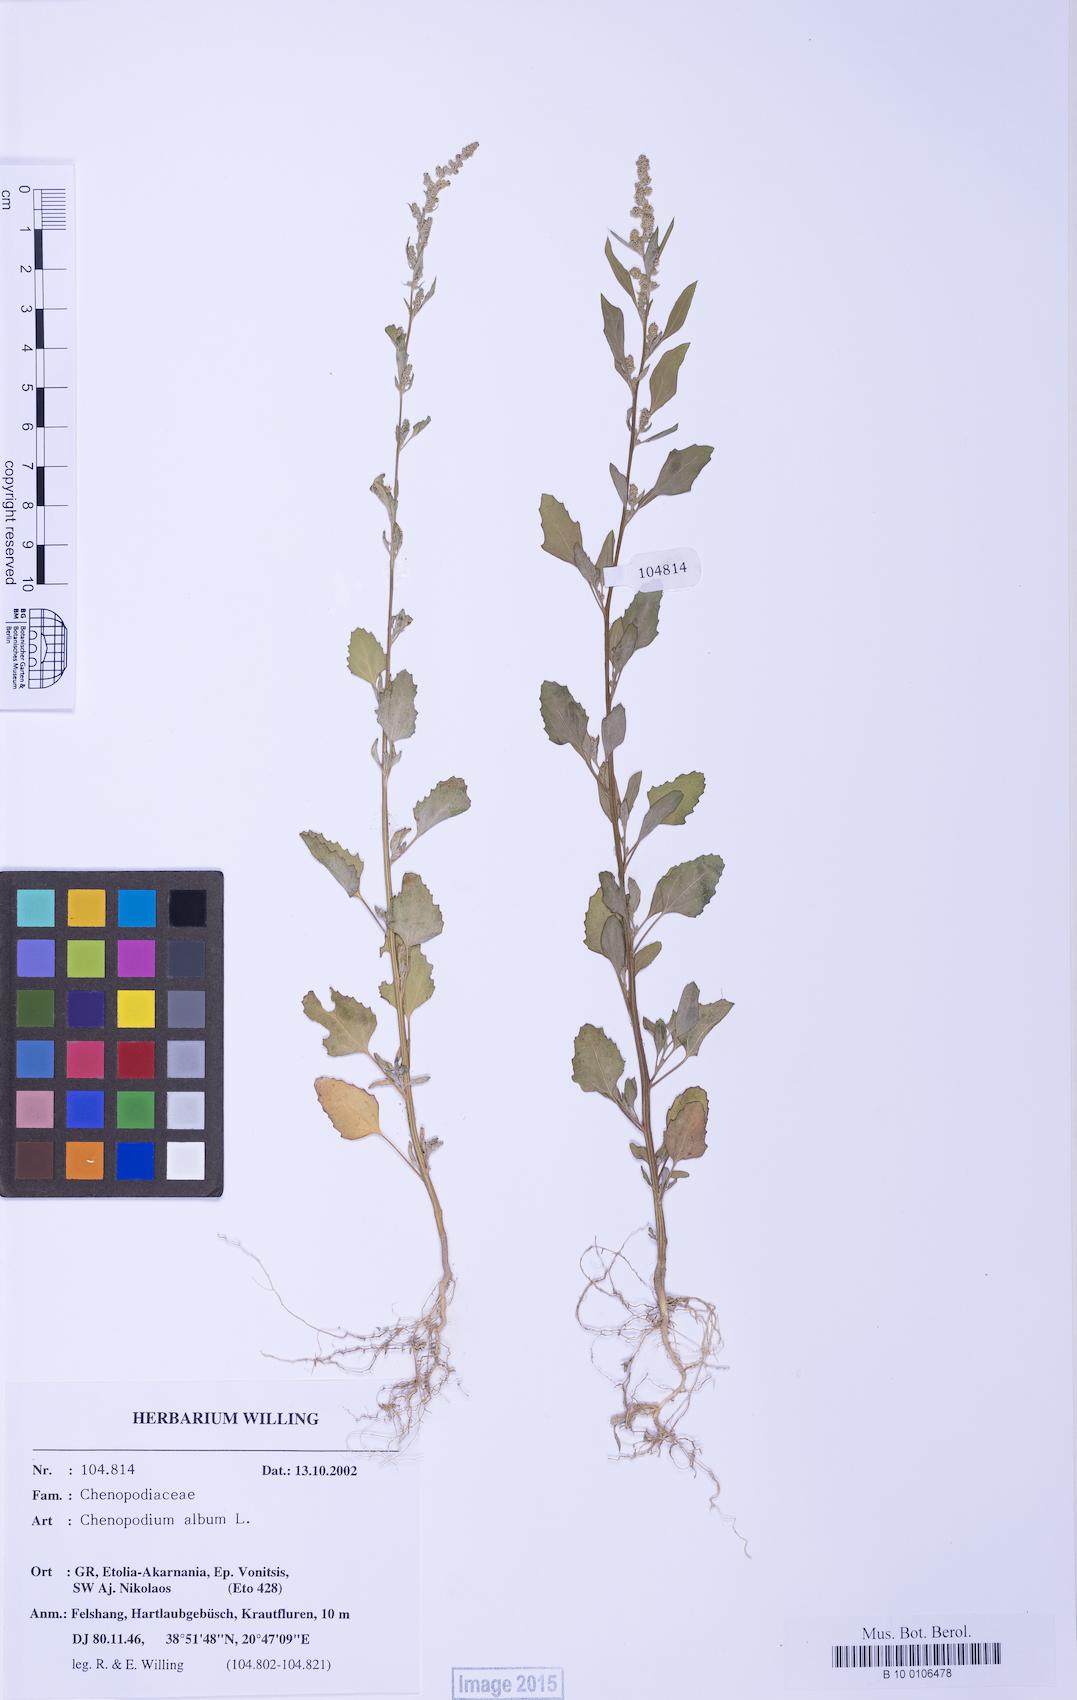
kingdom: Plantae
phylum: Tracheophyta
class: Magnoliopsida
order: Caryophyllales
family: Amaranthaceae
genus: Chenopodium
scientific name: Chenopodium betaceum
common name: Striped goosefoot
